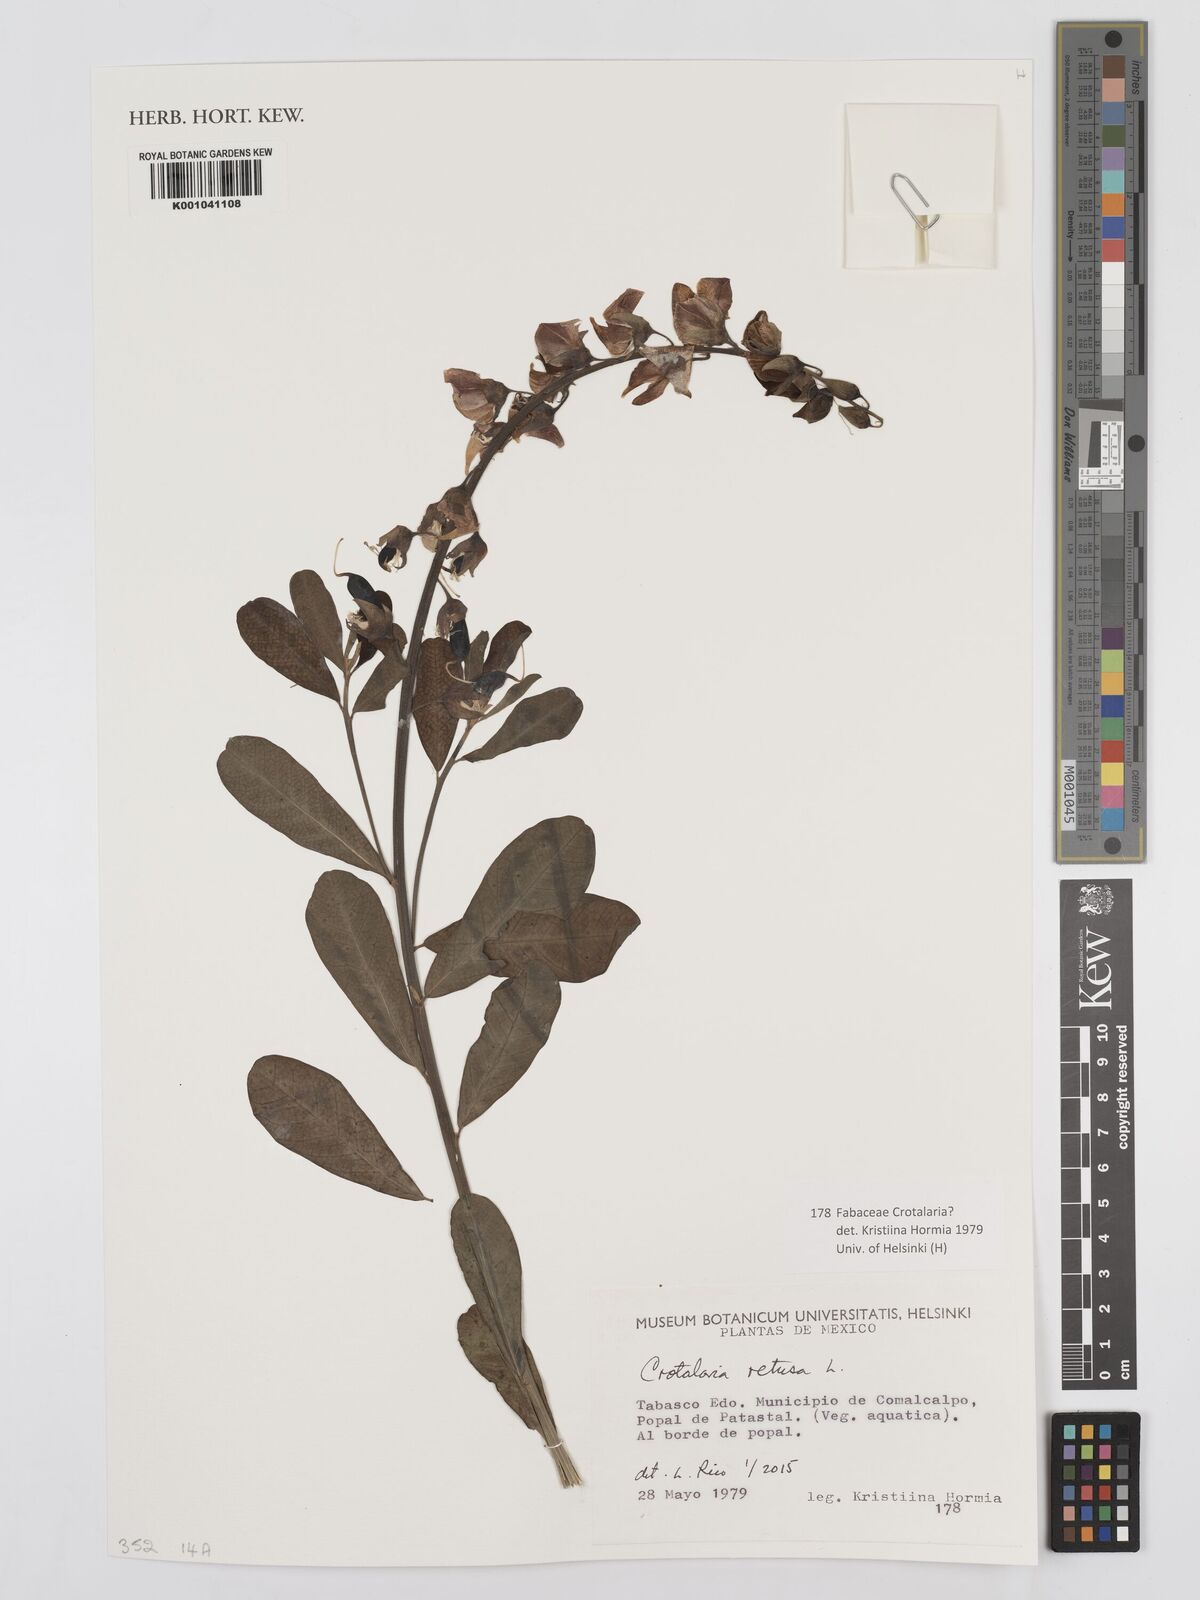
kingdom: Plantae
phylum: Tracheophyta
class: Magnoliopsida
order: Fabales
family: Fabaceae
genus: Crotalaria
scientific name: Crotalaria retusa
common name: Rattleweed
